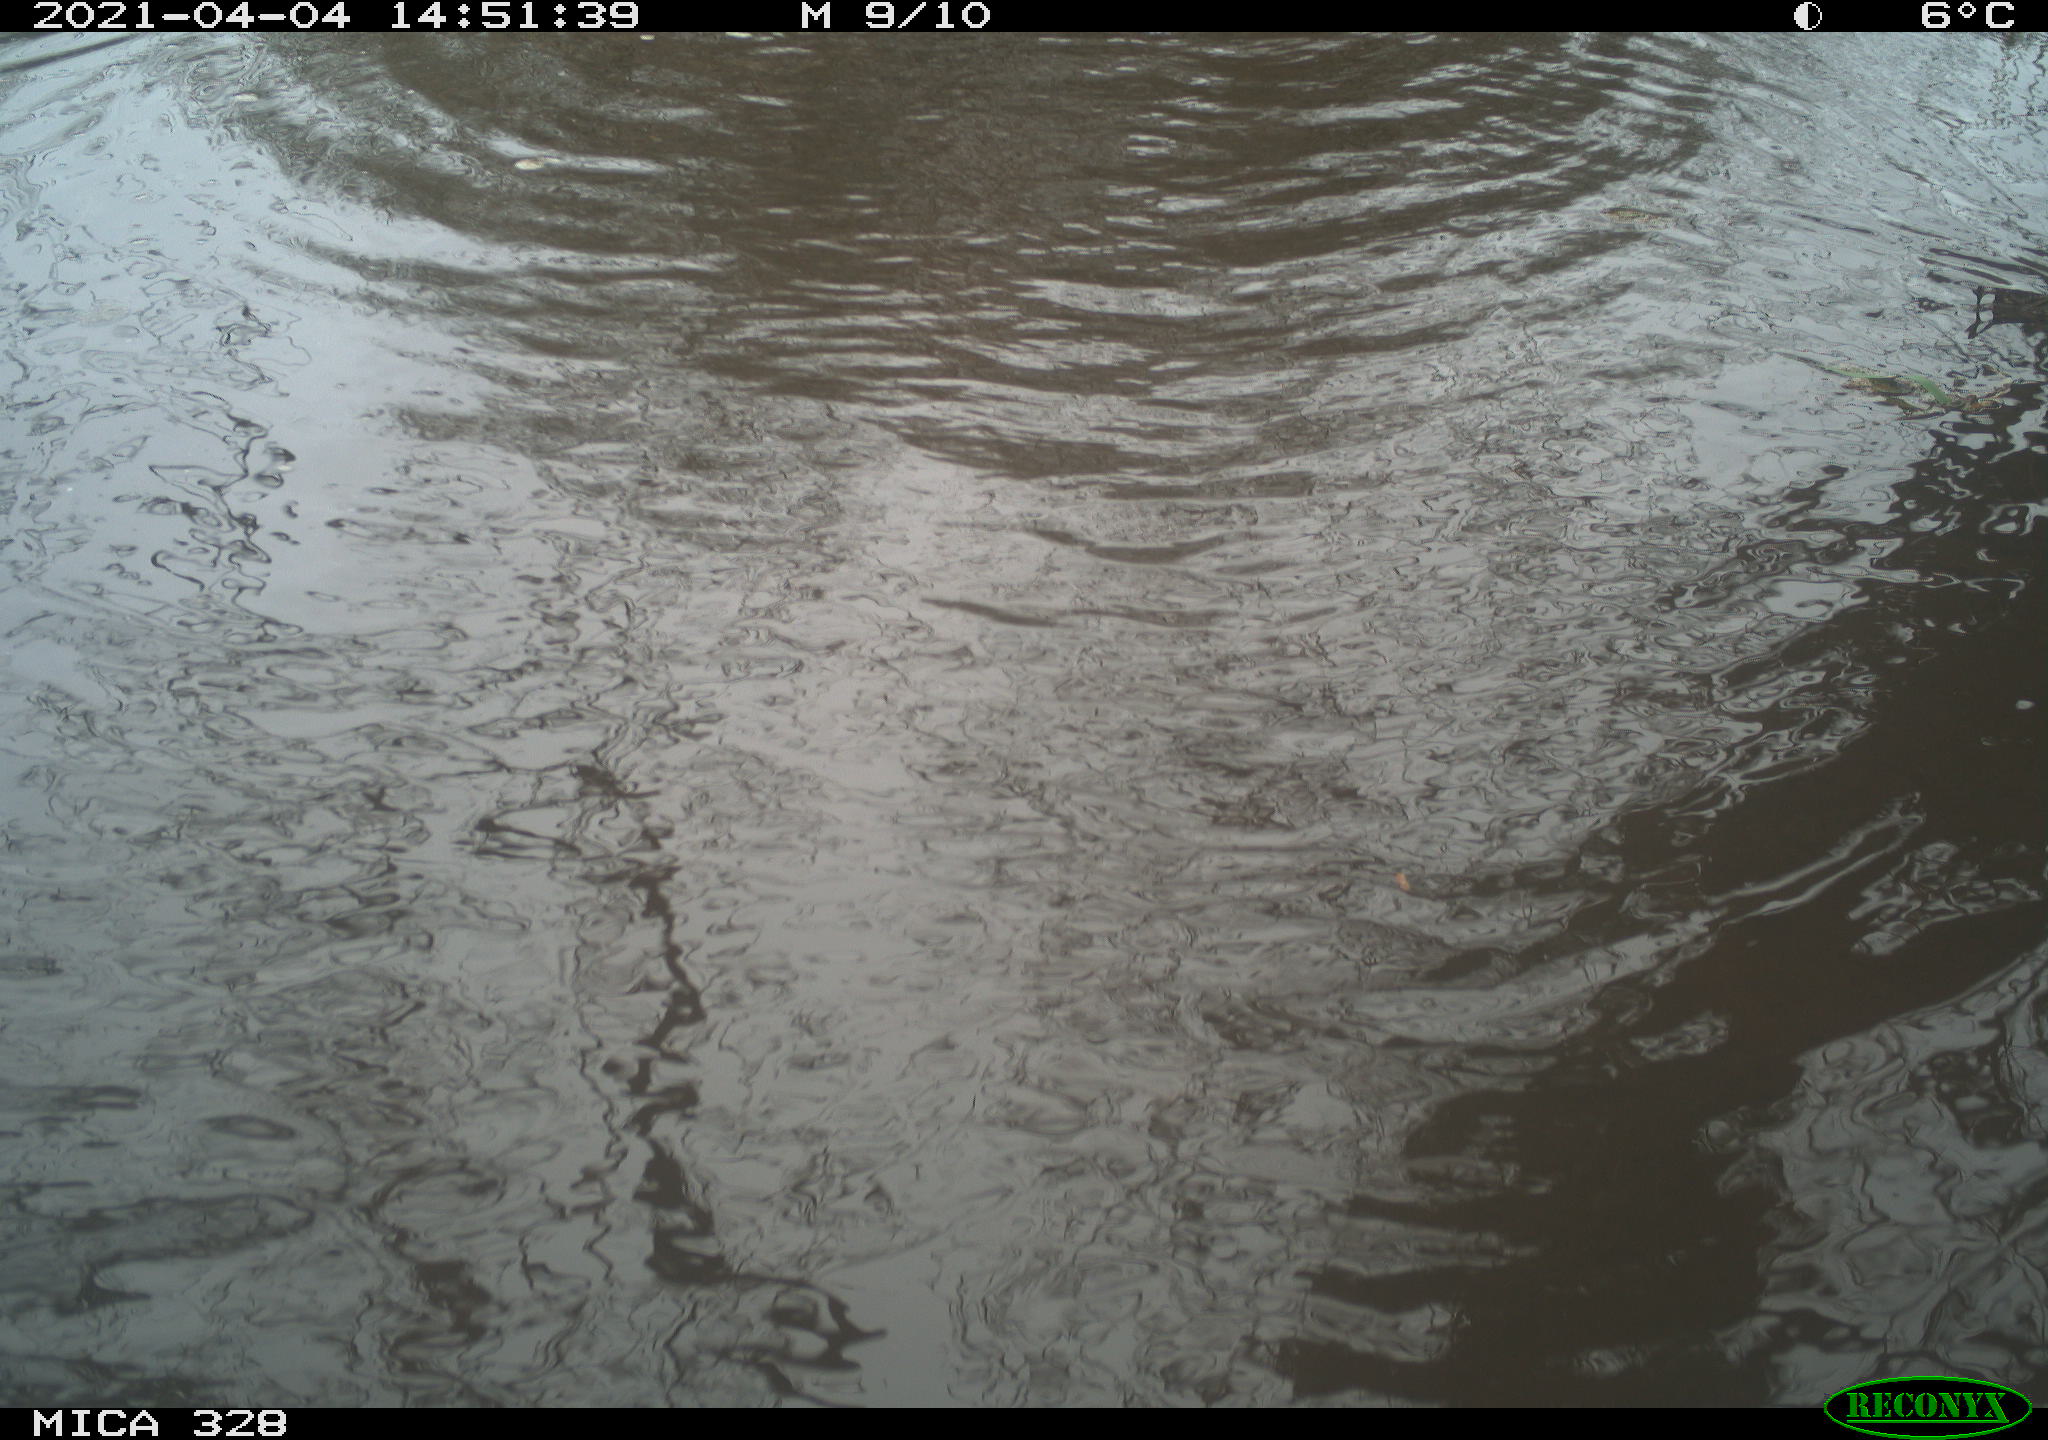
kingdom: Animalia
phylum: Chordata
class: Mammalia
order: Rodentia
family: Cricetidae
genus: Ondatra
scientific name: Ondatra zibethicus
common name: Muskrat
